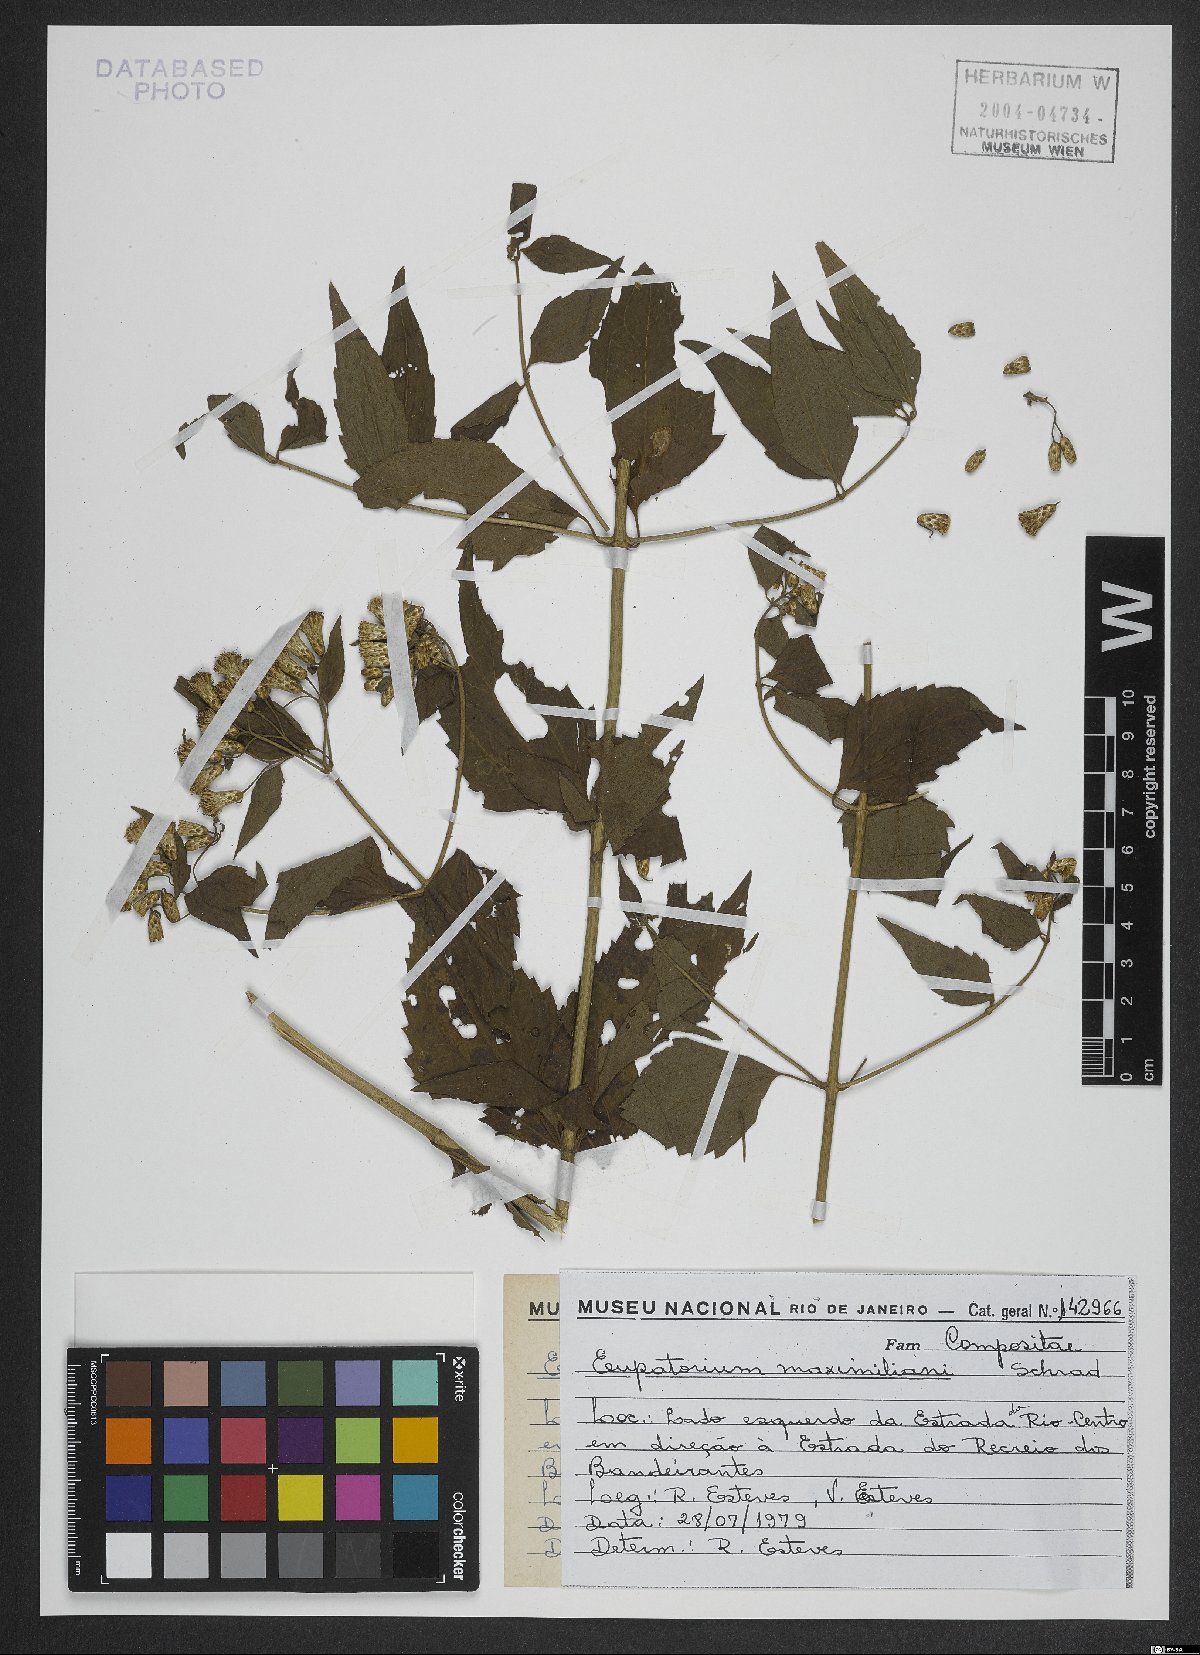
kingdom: Plantae
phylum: Tracheophyta
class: Magnoliopsida
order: Asterales
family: Asteraceae
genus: Chromolaena
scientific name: Chromolaena maximiliani
